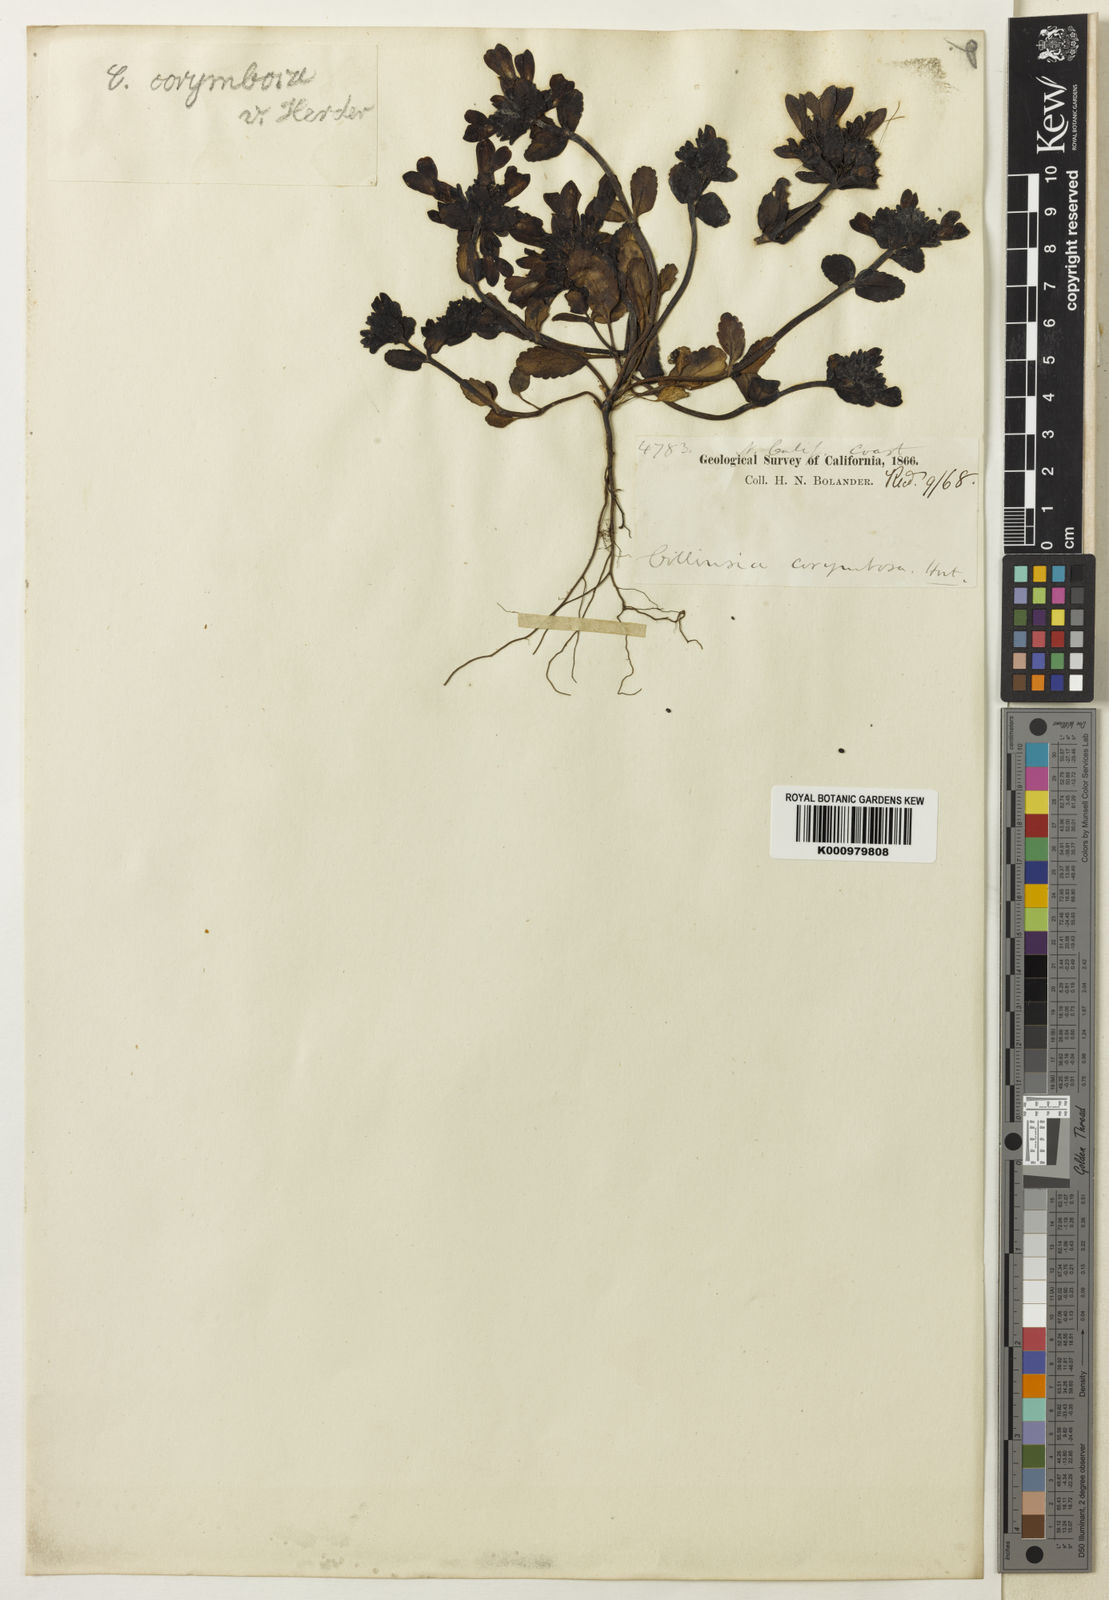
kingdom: Plantae
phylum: Tracheophyta
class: Magnoliopsida
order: Lamiales
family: Plantaginaceae
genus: Collinsia
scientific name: Collinsia corymbosa
